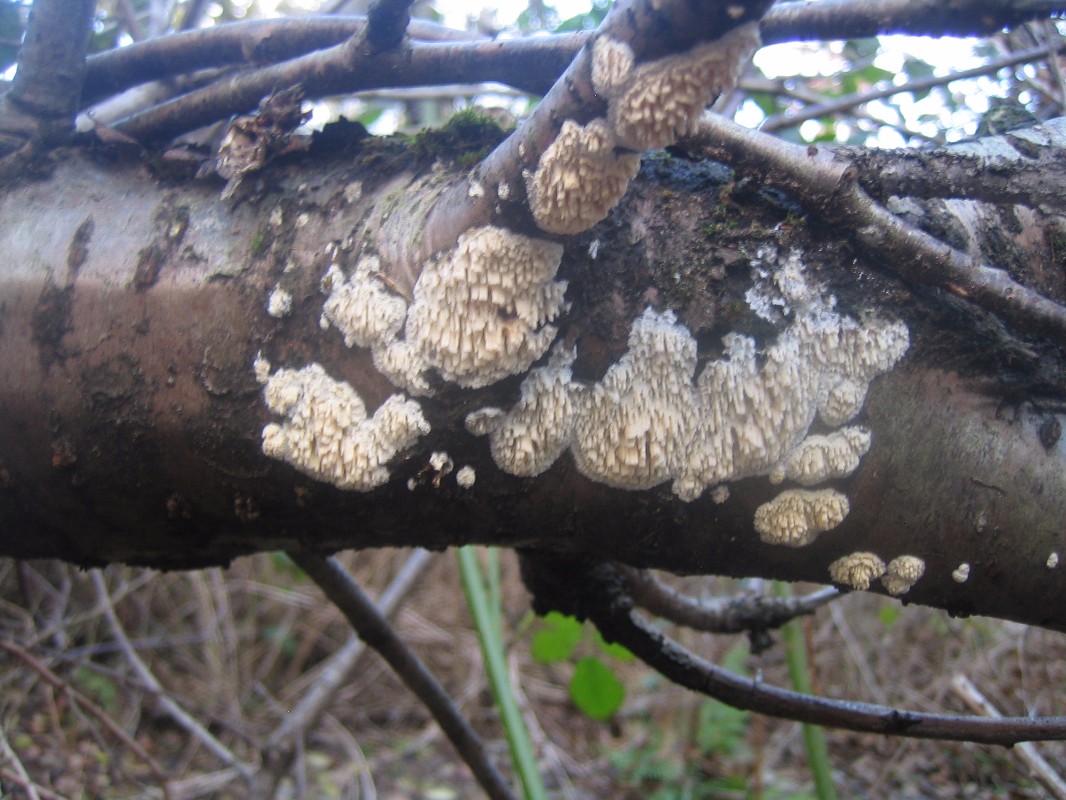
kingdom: Fungi
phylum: Basidiomycota
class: Agaricomycetes
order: Hymenochaetales
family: Schizoporaceae
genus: Schizopora
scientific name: Schizopora paradoxa
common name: hvid tandsvamp
